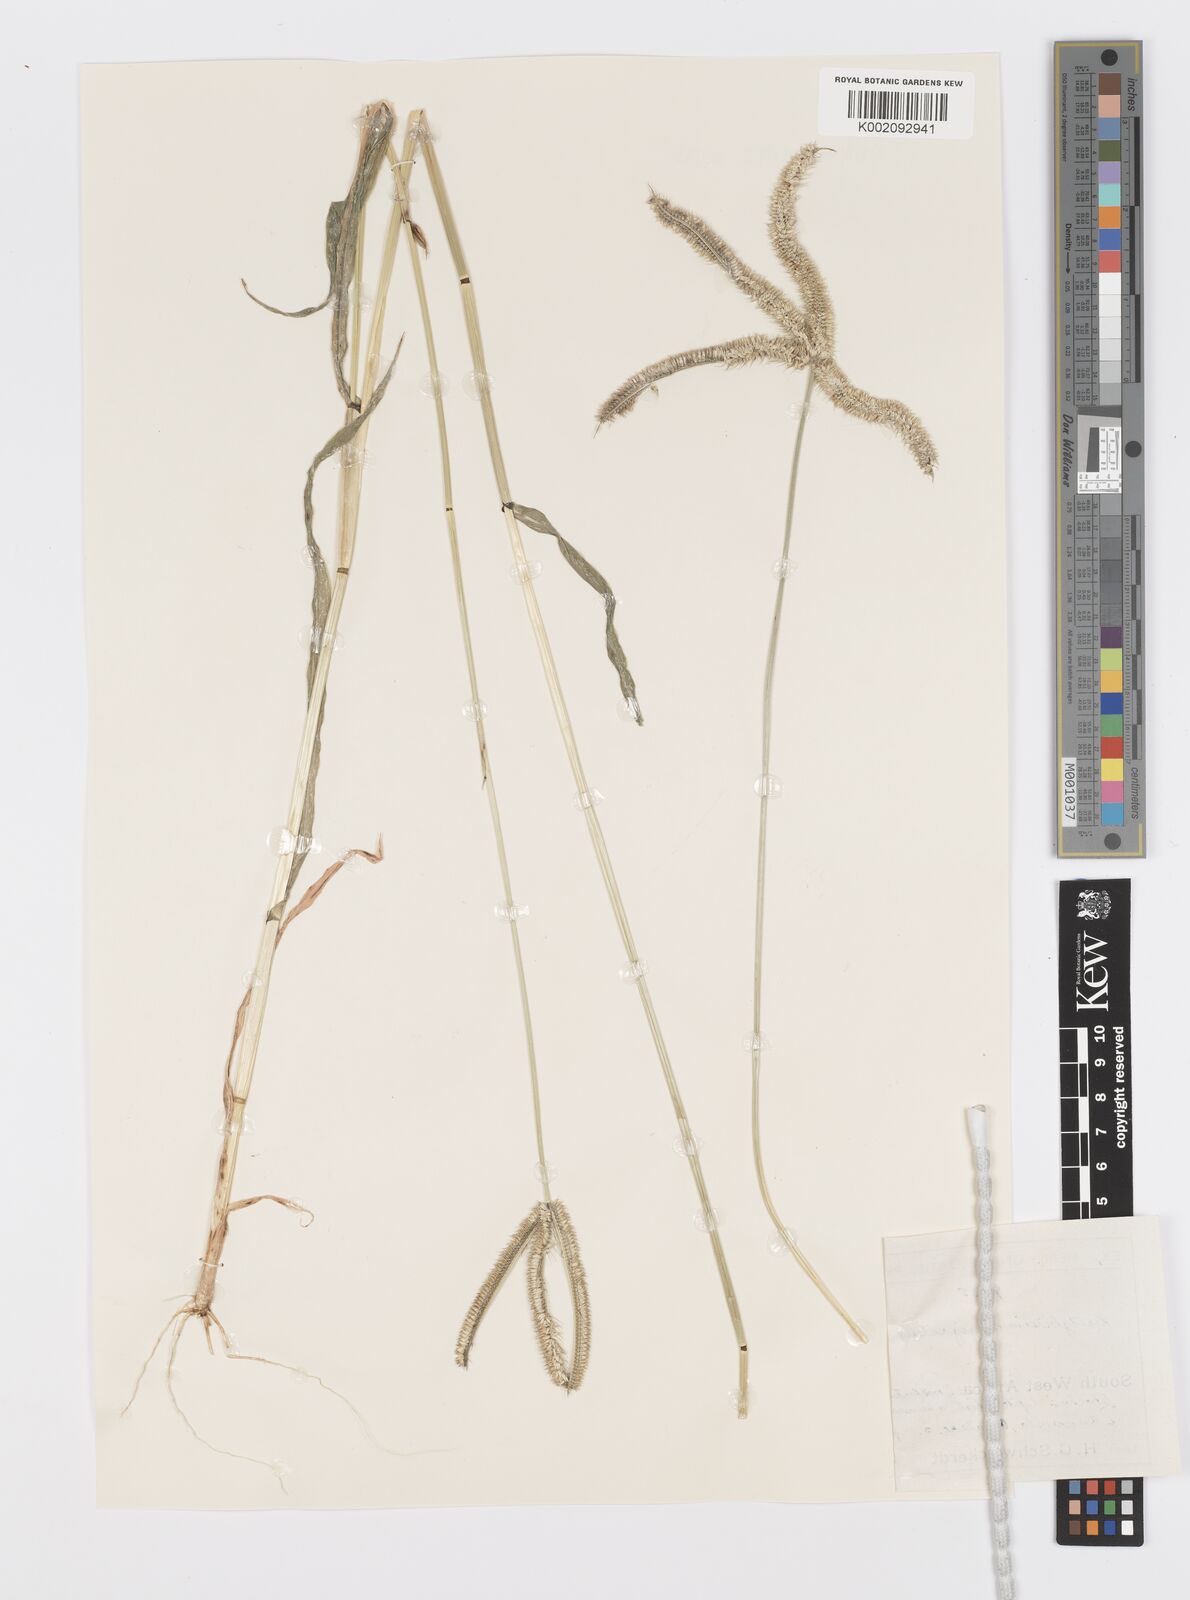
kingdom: Plantae
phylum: Tracheophyta
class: Liliopsida
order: Poales
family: Poaceae
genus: Dactyloctenium
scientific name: Dactyloctenium giganteum
